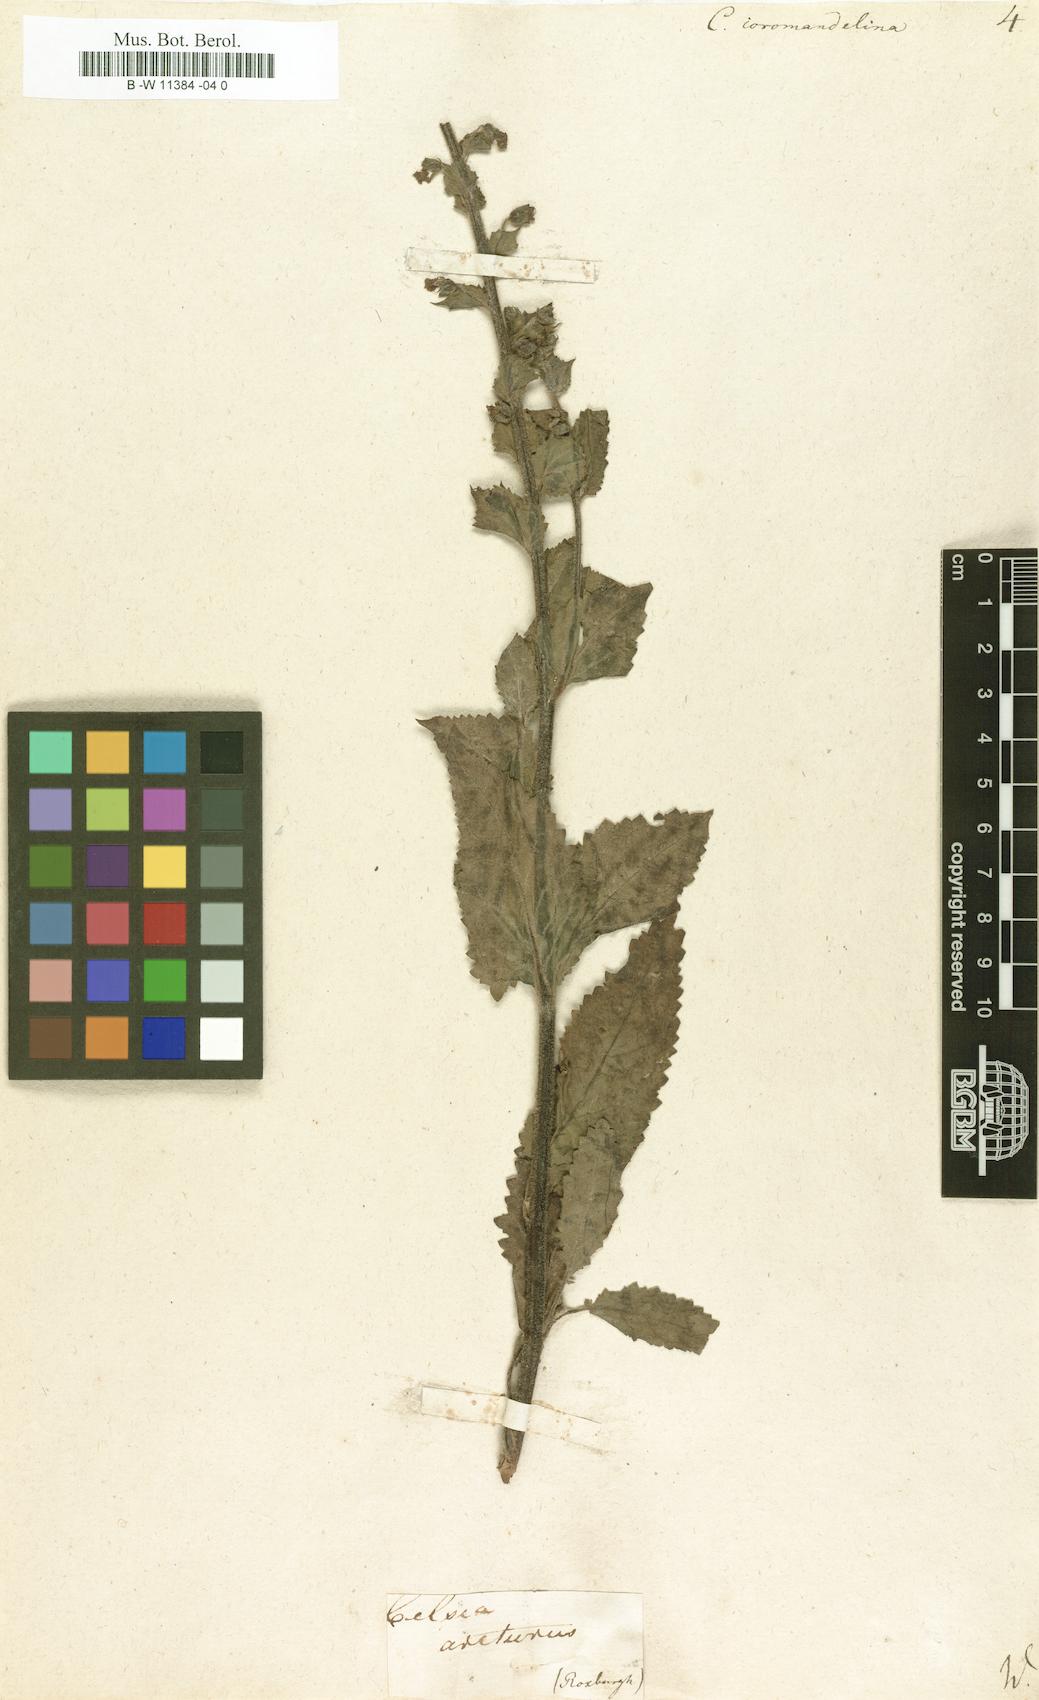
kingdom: Plantae
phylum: Tracheophyta
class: Magnoliopsida
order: Lamiales
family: Scrophulariaceae
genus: Verbascum
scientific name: Verbascum coromandelianum
